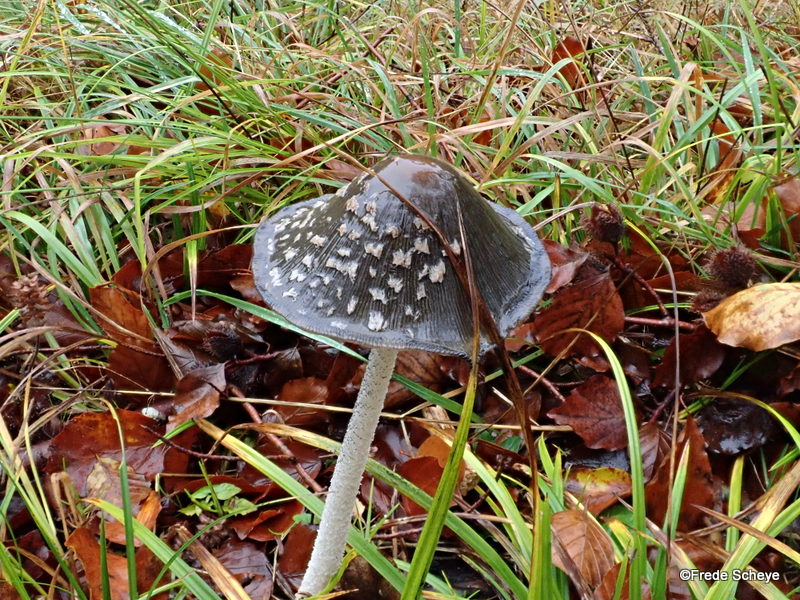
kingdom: Fungi
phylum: Basidiomycota
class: Agaricomycetes
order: Agaricales
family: Psathyrellaceae
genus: Coprinopsis
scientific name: Coprinopsis picacea
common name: skade-blækhat
